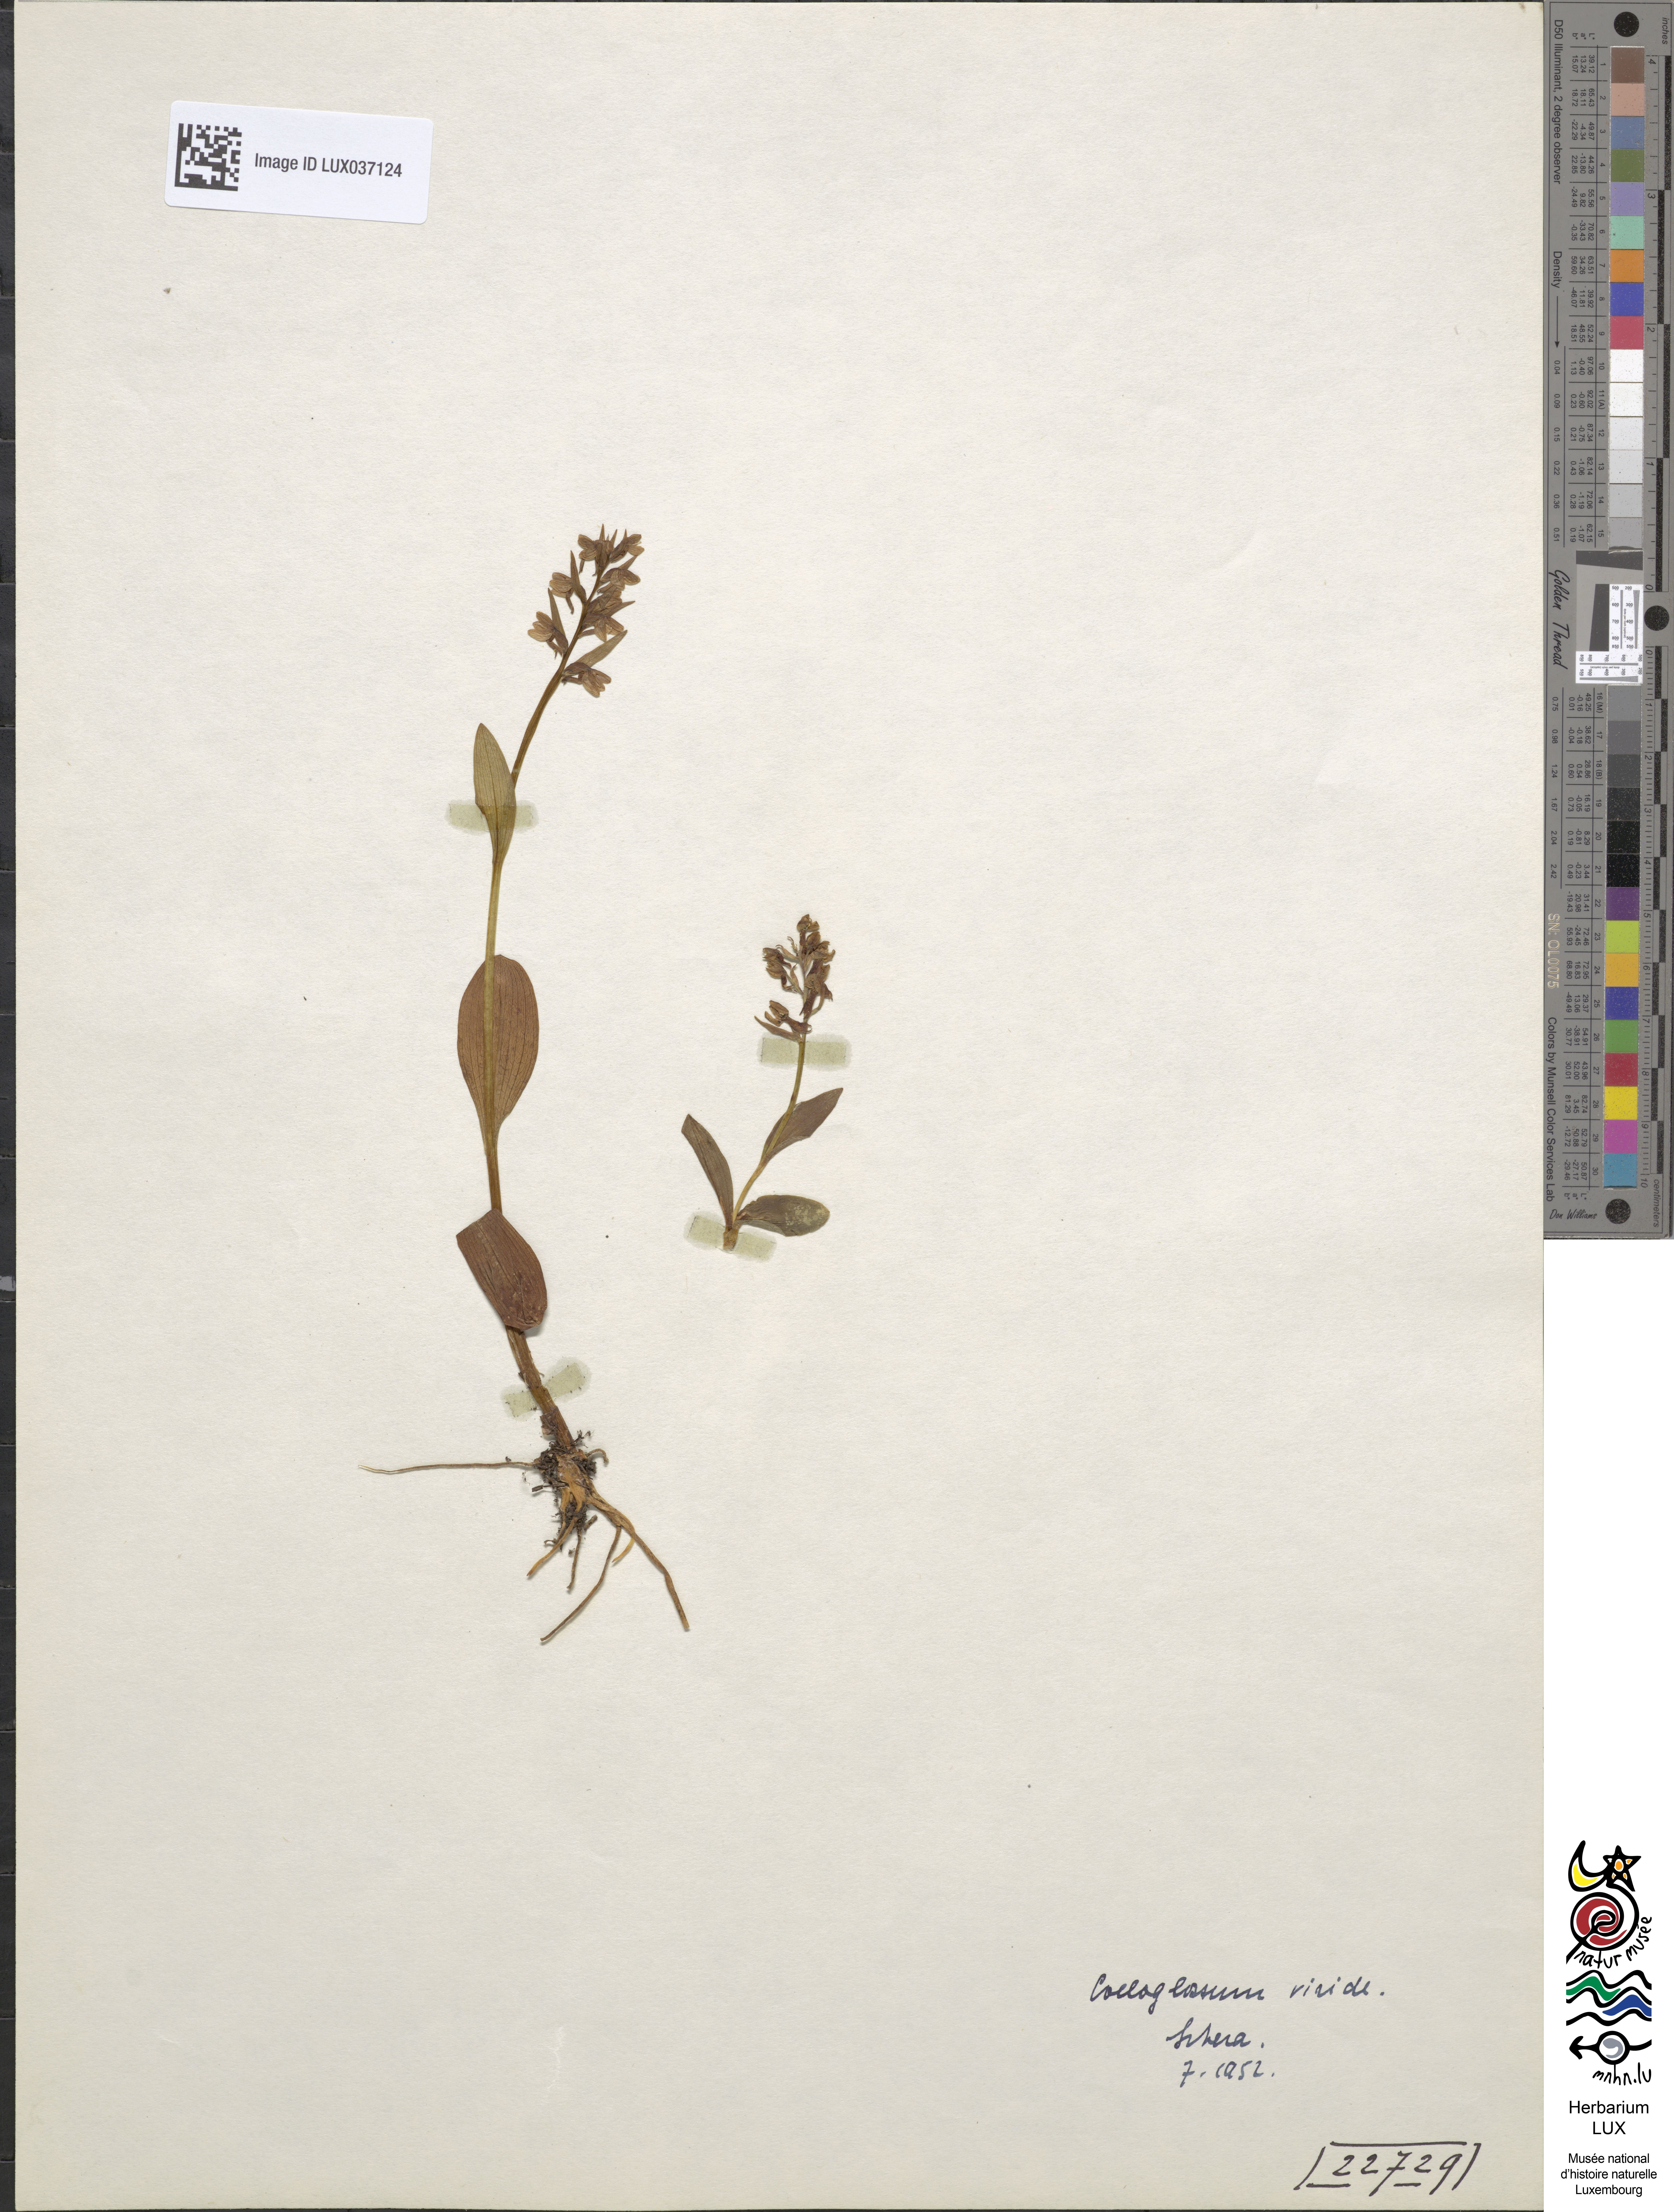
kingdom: Plantae
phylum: Tracheophyta
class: Liliopsida
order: Asparagales
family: Orchidaceae
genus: Dactylorhiza
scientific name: Dactylorhiza viridis
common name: Longbract frog orchid
